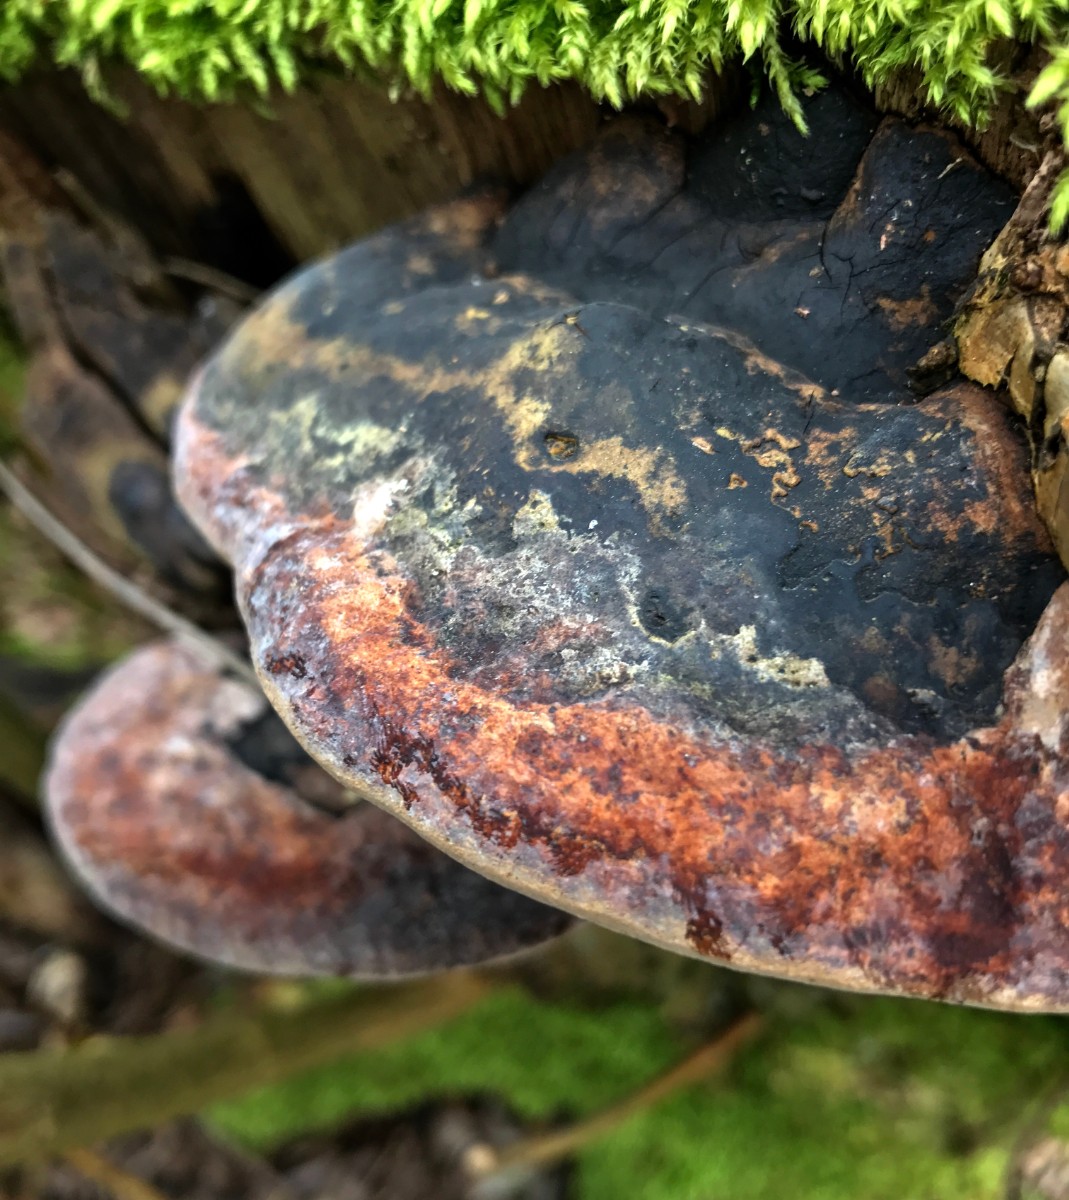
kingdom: Fungi
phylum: Basidiomycota
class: Agaricomycetes
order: Hymenochaetales
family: Hymenochaetaceae
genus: Phellinus
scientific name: Phellinus igniarius
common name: almindelig ildporesvamp
